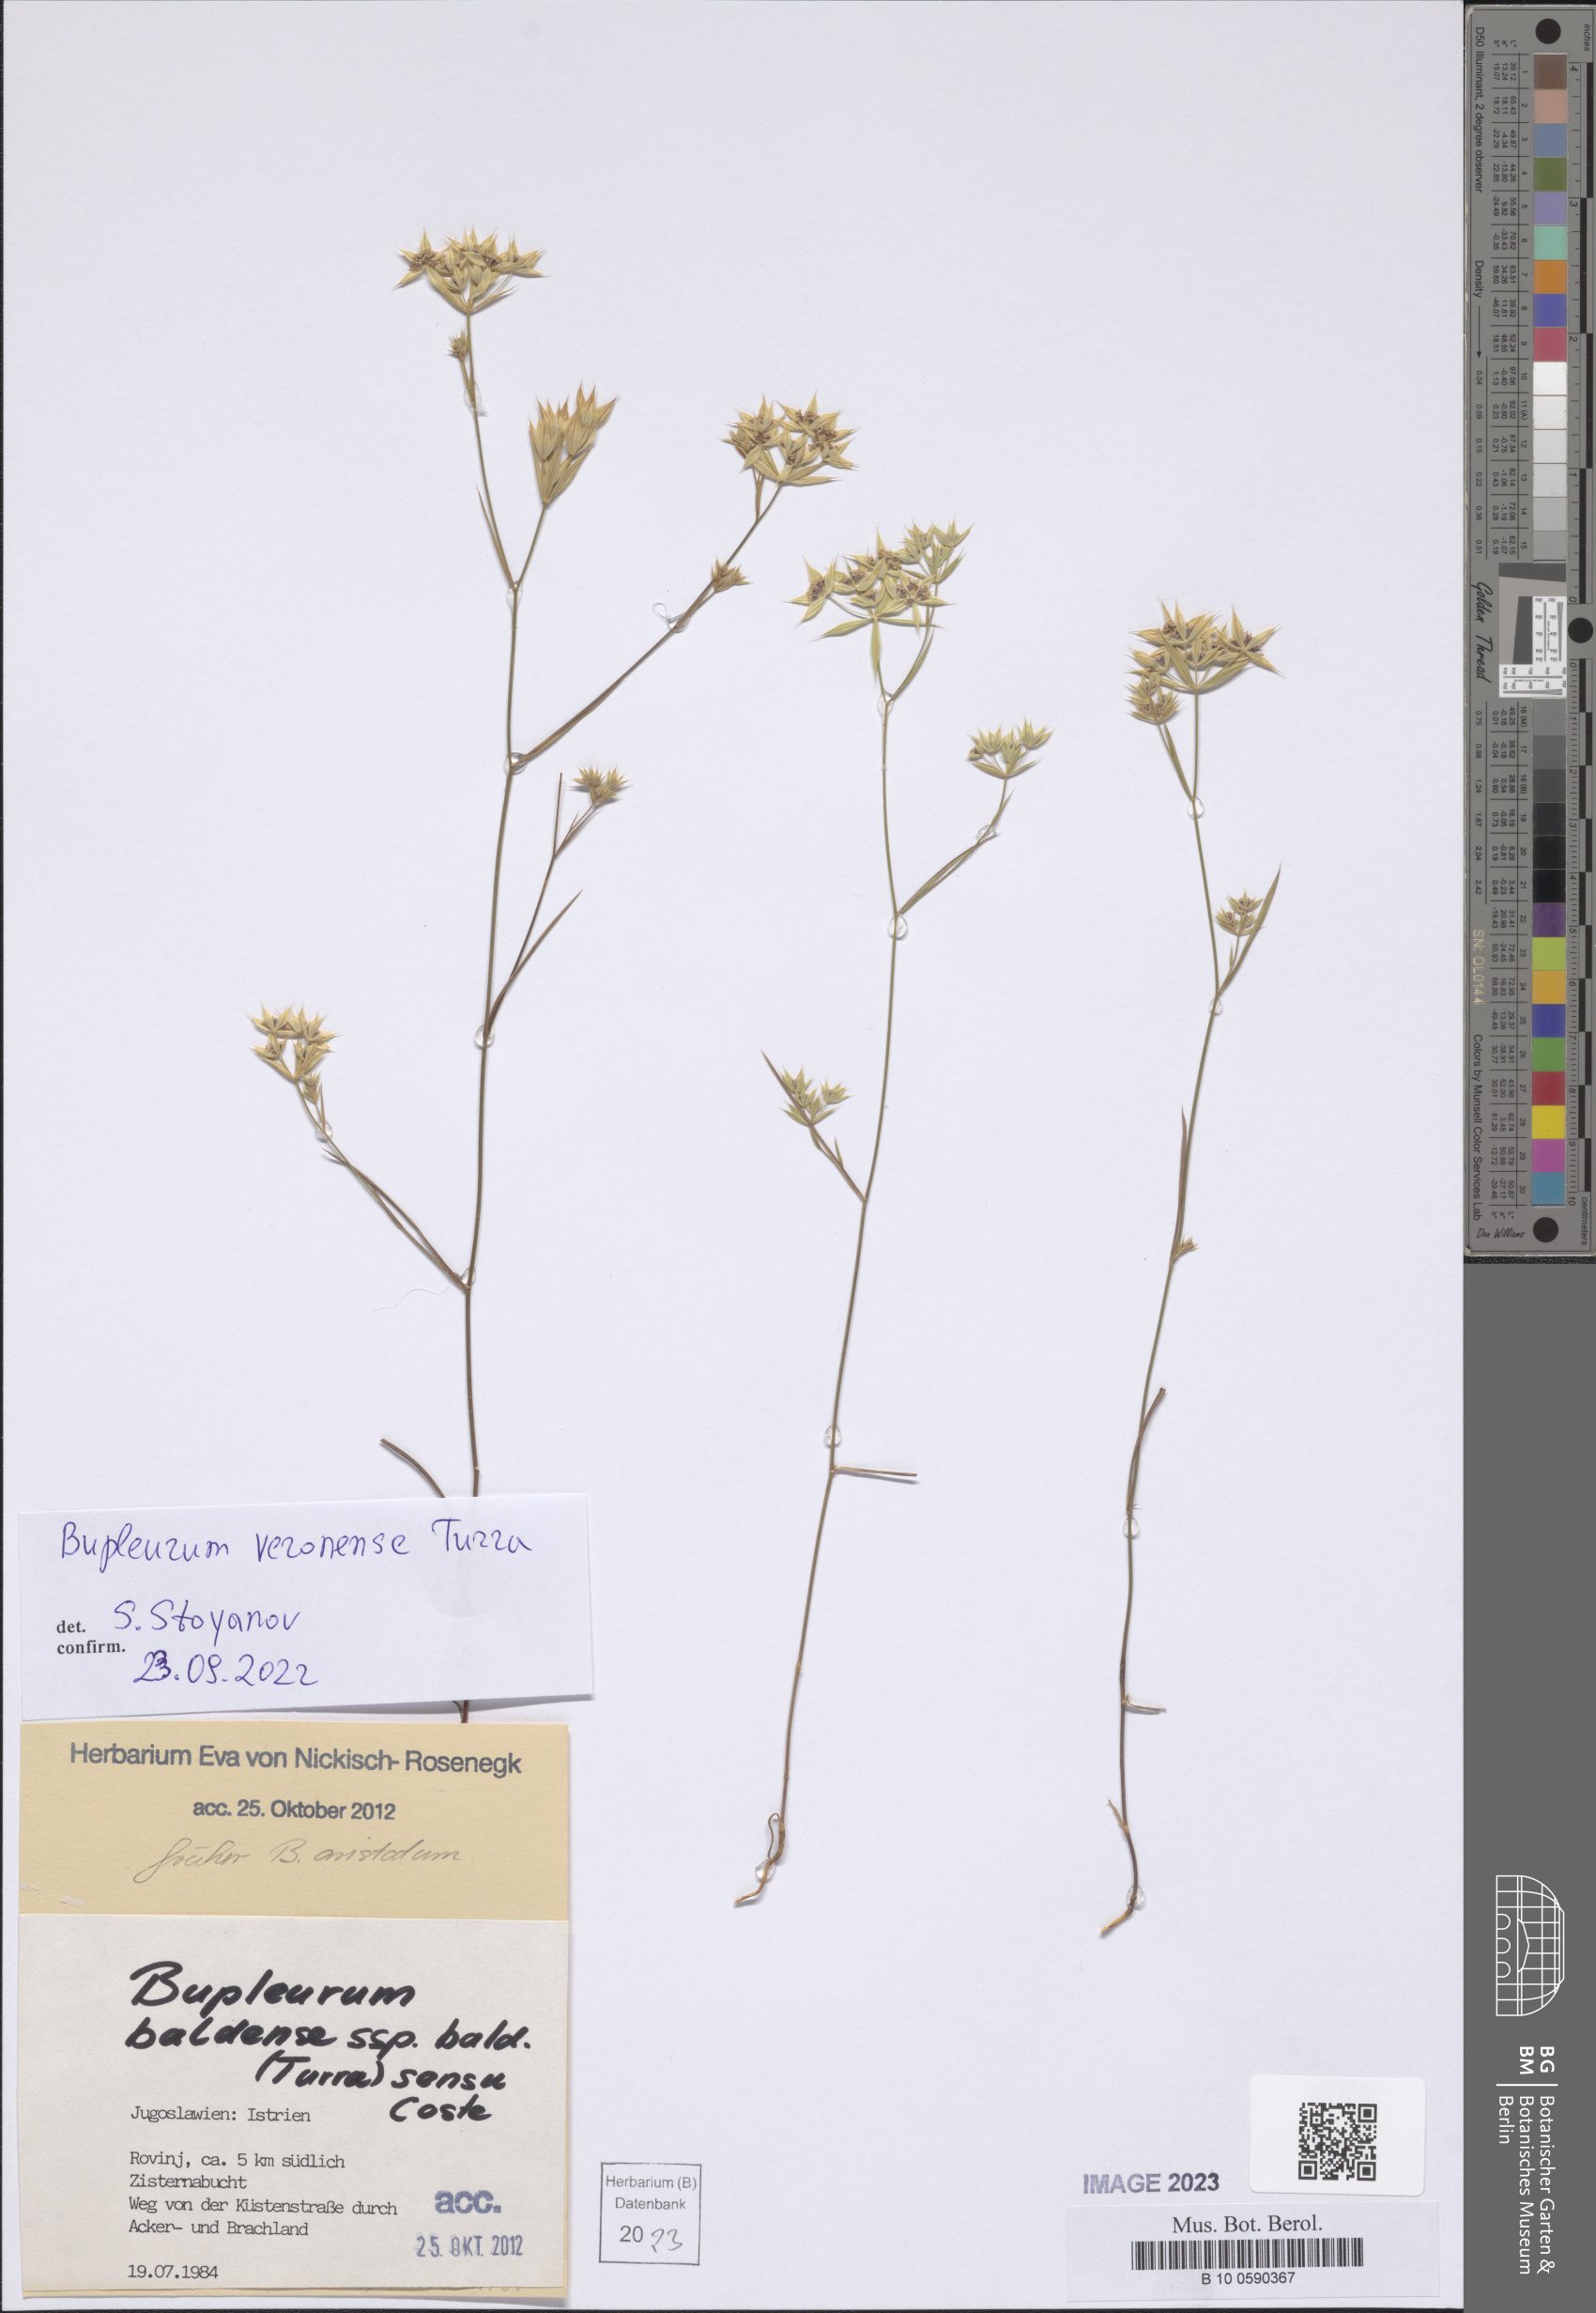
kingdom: Plantae
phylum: Tracheophyta
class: Magnoliopsida
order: Apiales
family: Apiaceae
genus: Bupleurum
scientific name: Bupleurum veronense
